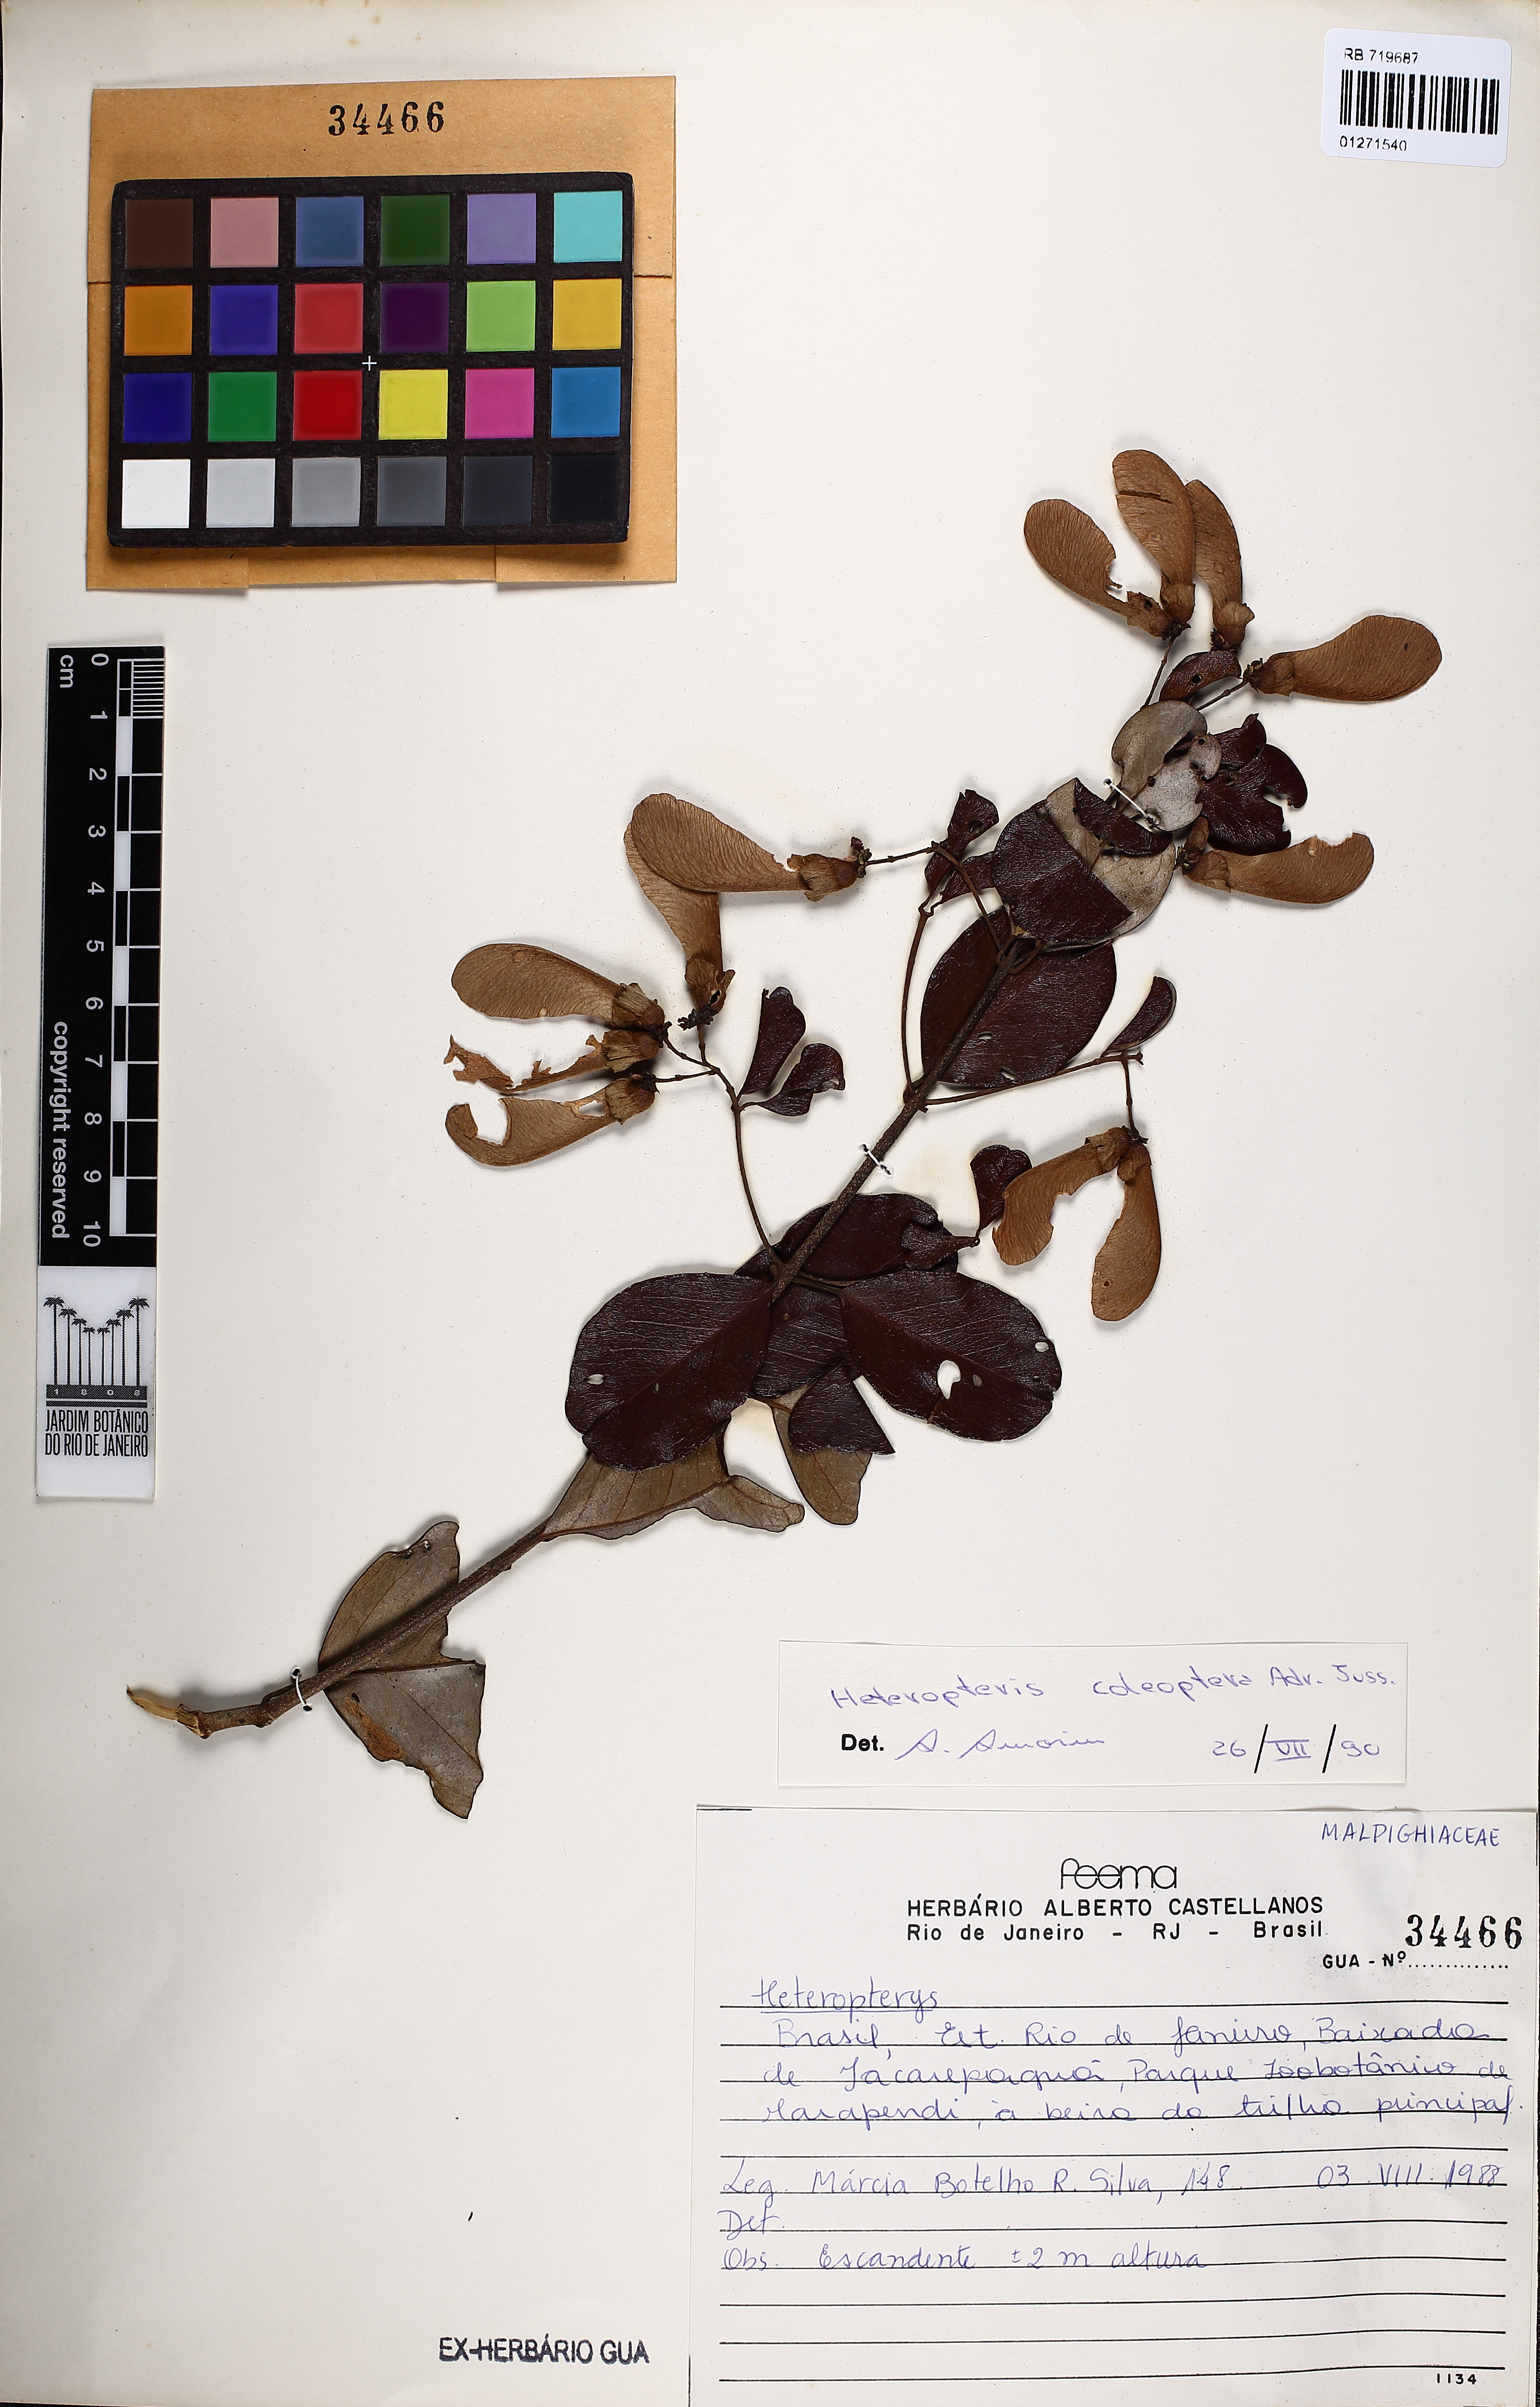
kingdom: Plantae
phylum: Tracheophyta
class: Magnoliopsida
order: Malpighiales
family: Malpighiaceae
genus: Heteropterys
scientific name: Heteropterys coleoptera
